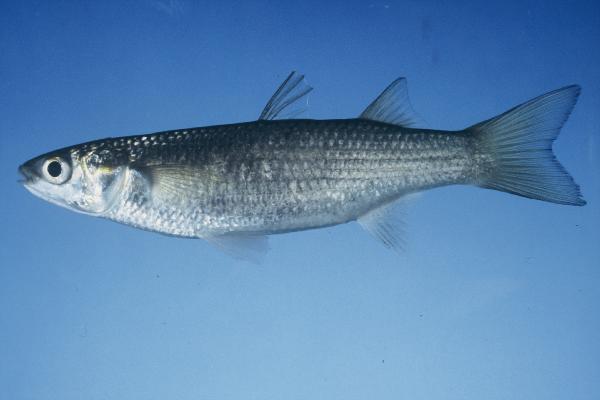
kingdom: Animalia
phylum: Chordata
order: Mugiliformes
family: Mugilidae
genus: Chelon
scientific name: Chelon dumerili
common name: Groovy mullet
